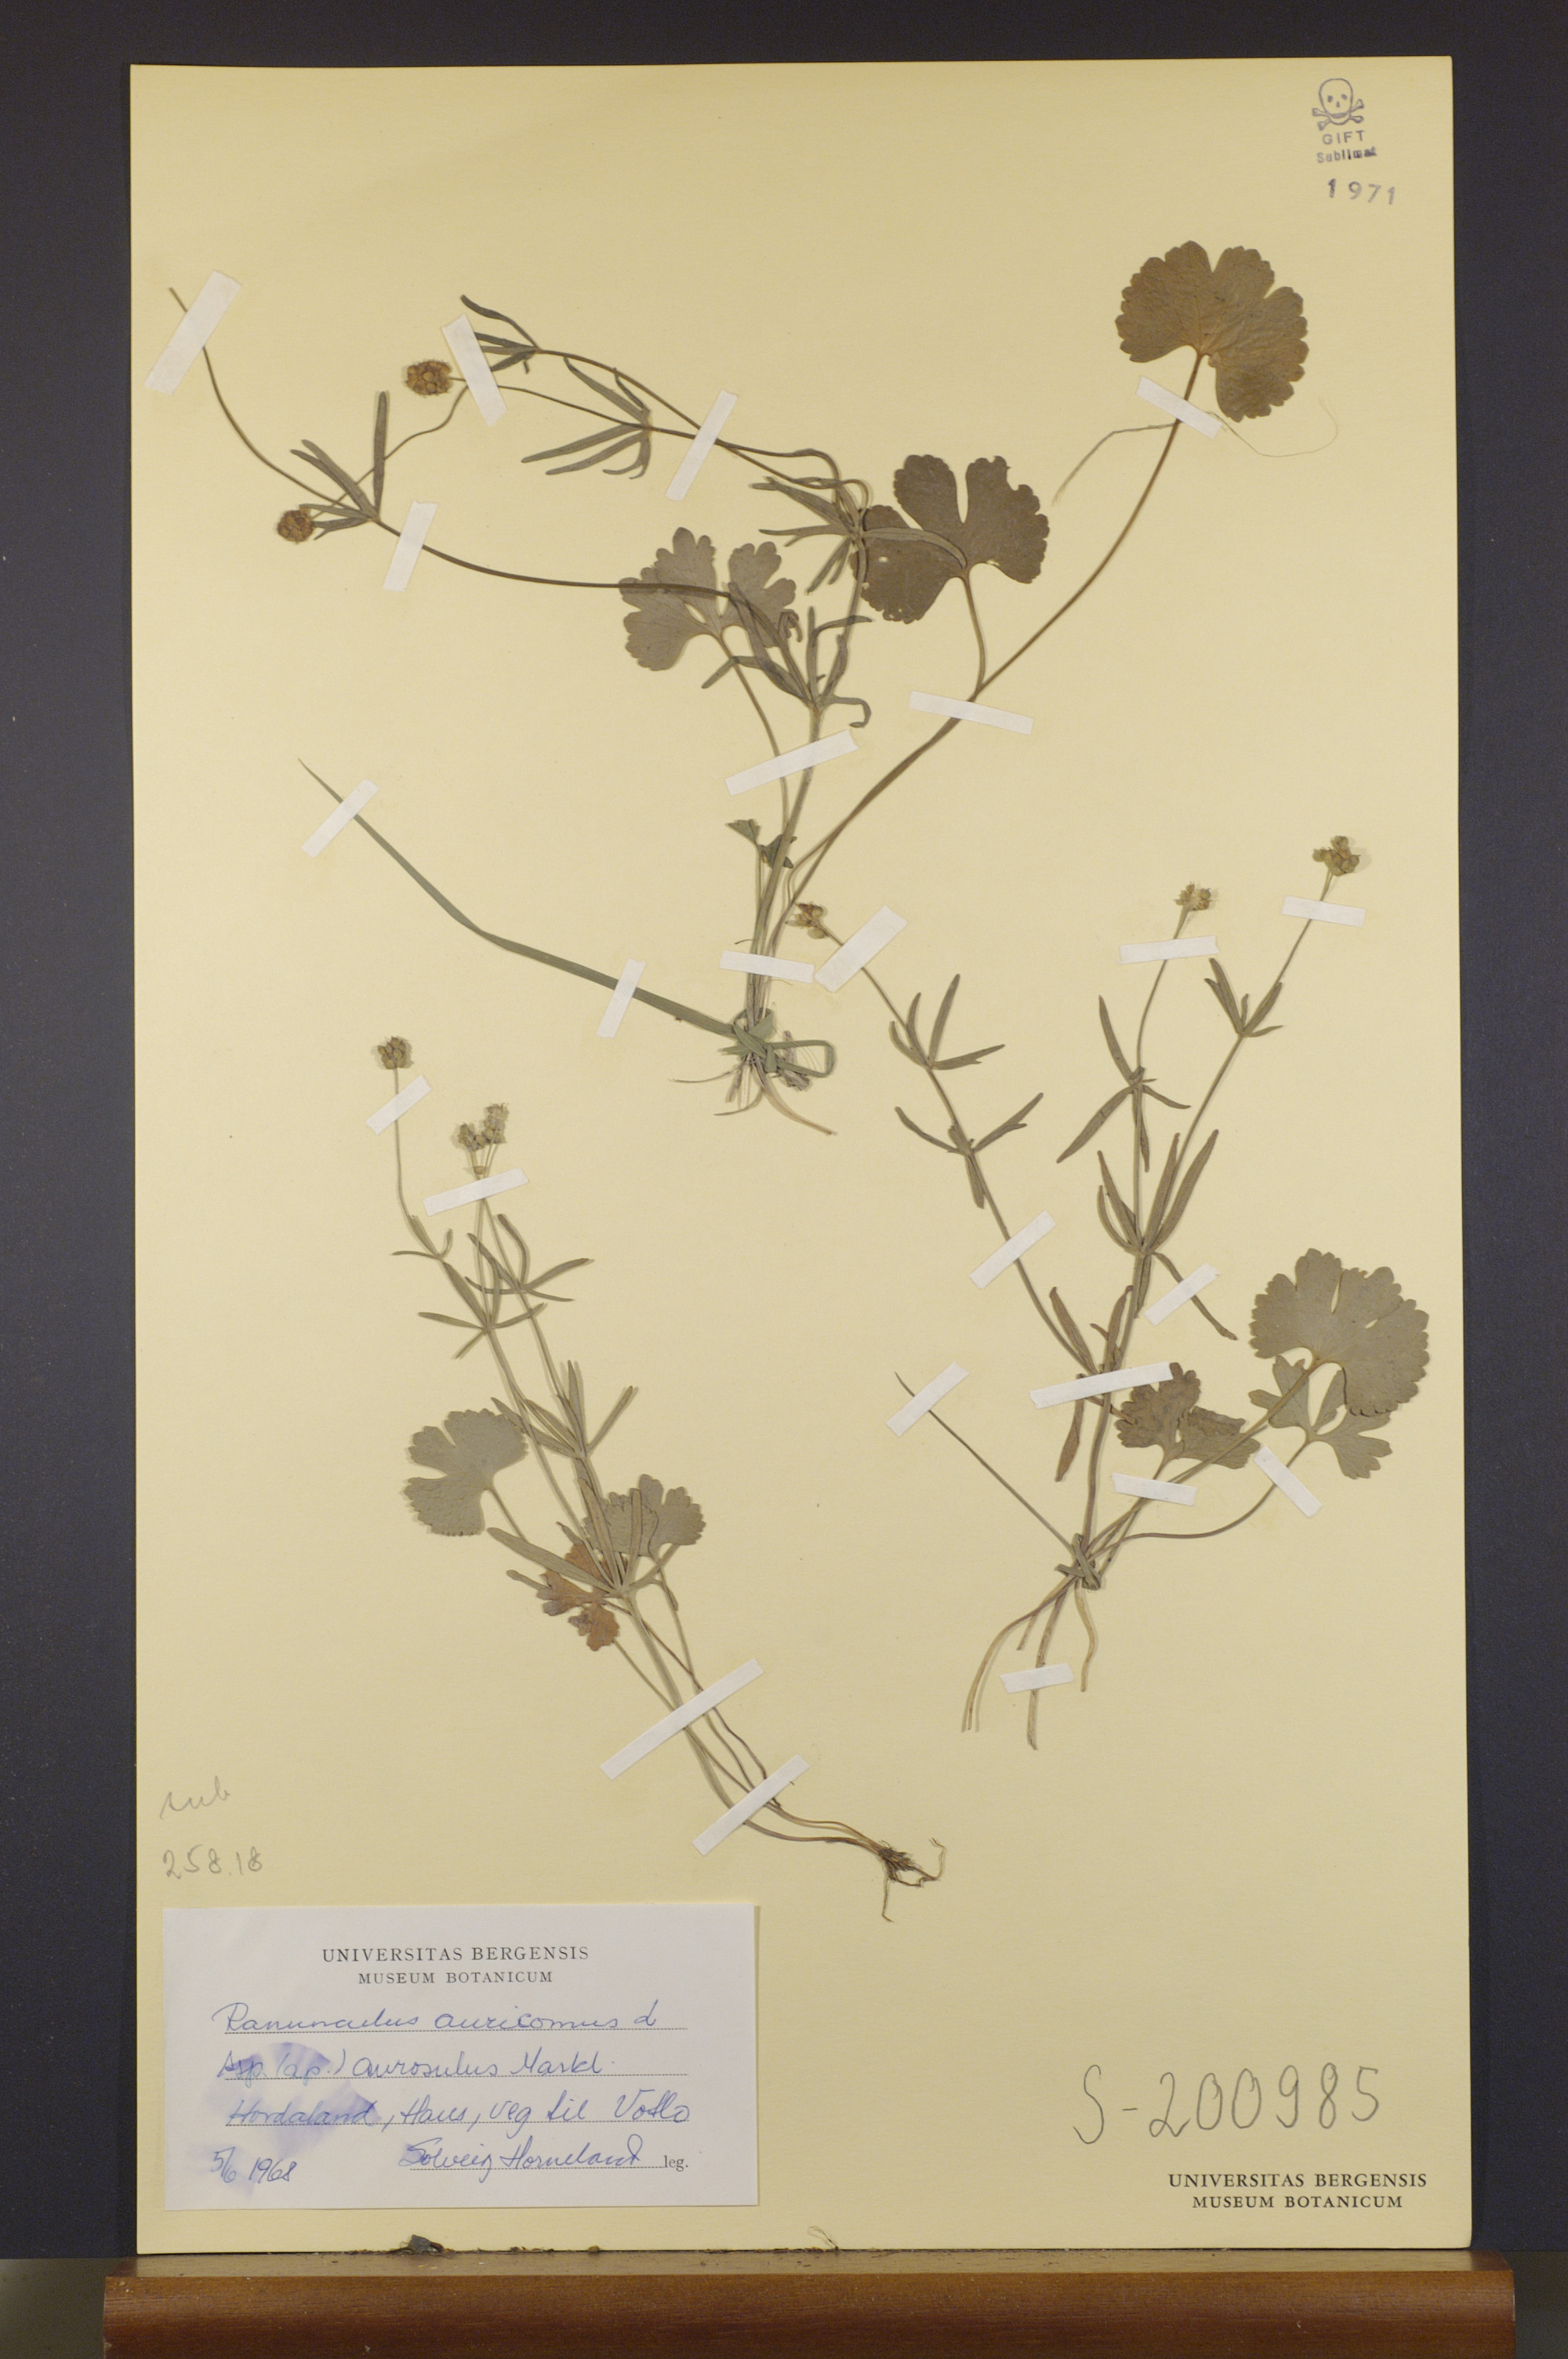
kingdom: Plantae
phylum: Tracheophyta
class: Magnoliopsida
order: Ranunculales
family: Ranunculaceae
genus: Ranunculus
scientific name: Ranunculus aurosulus
